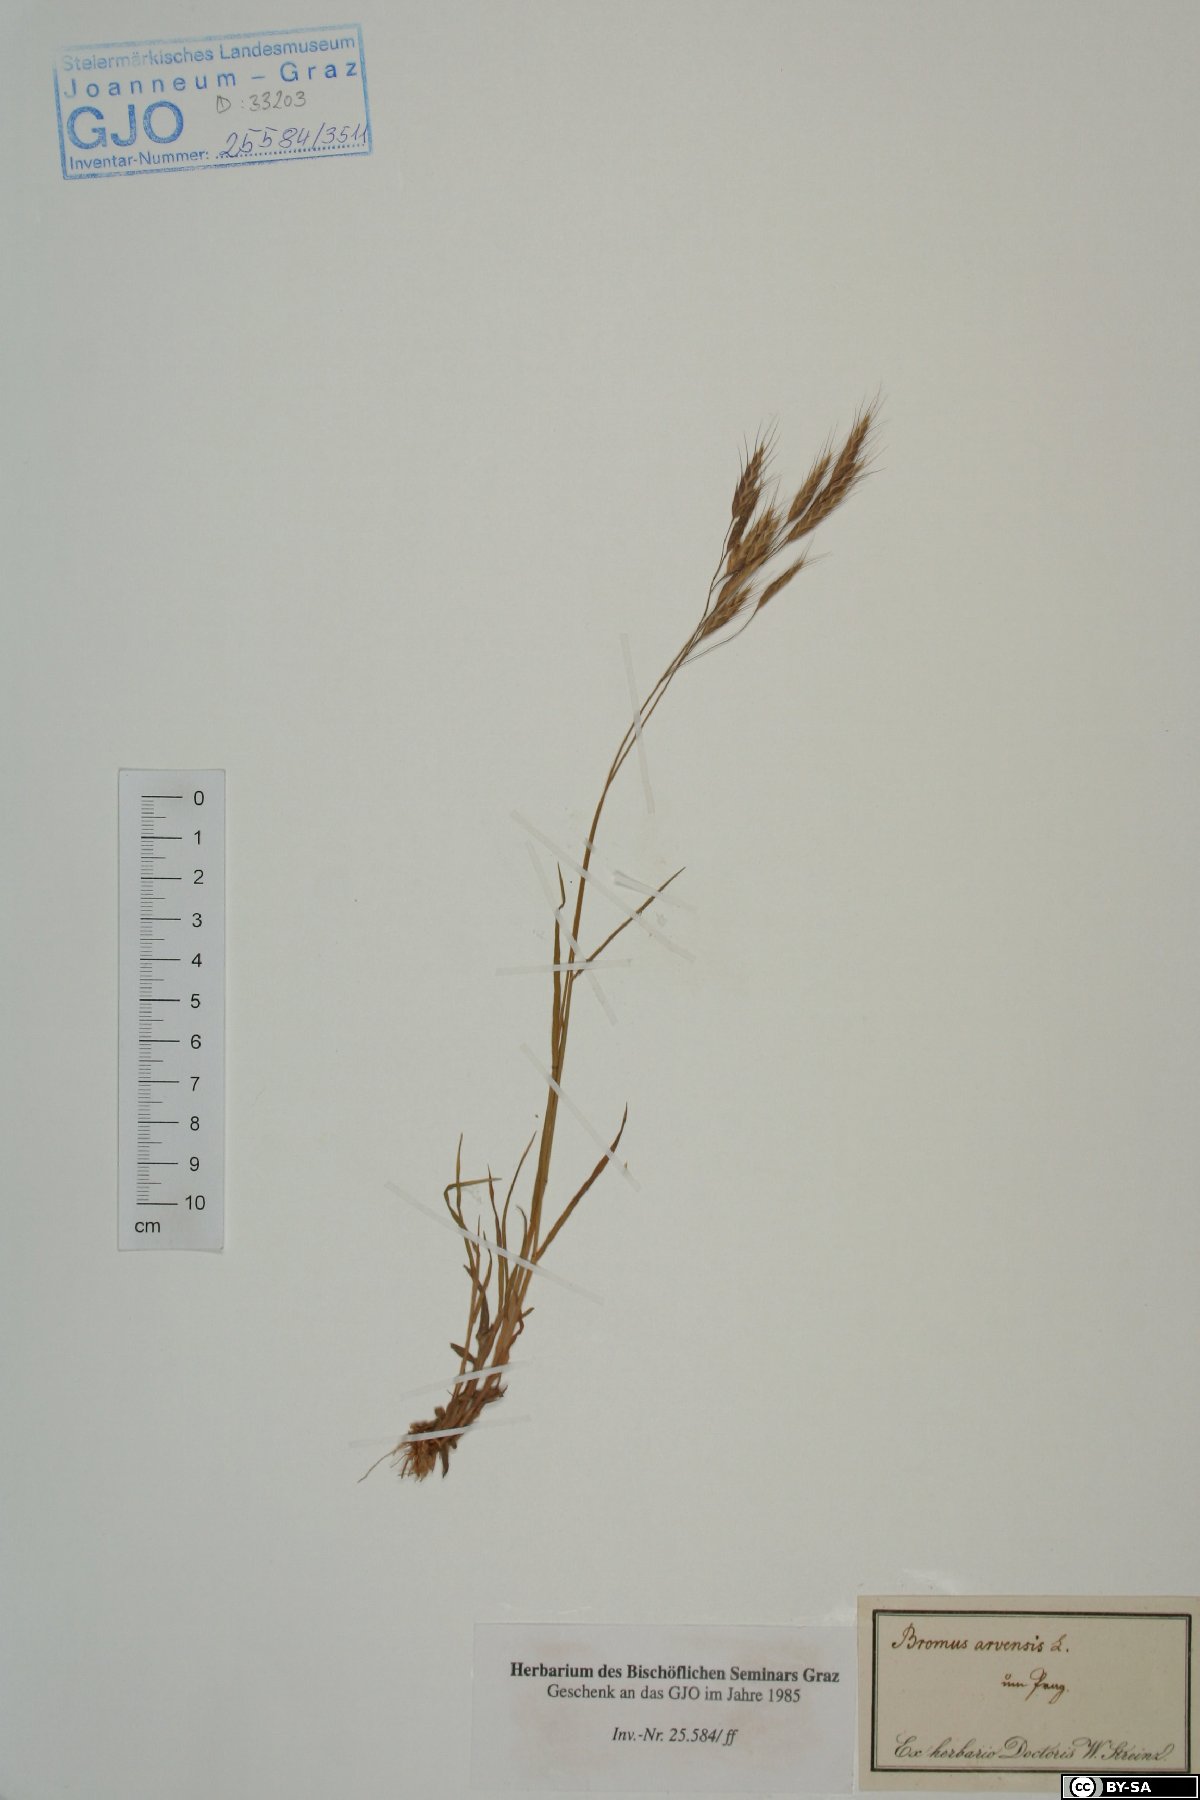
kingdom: Plantae
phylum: Tracheophyta
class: Liliopsida
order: Poales
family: Poaceae
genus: Bromus
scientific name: Bromus arvensis
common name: Field brome
